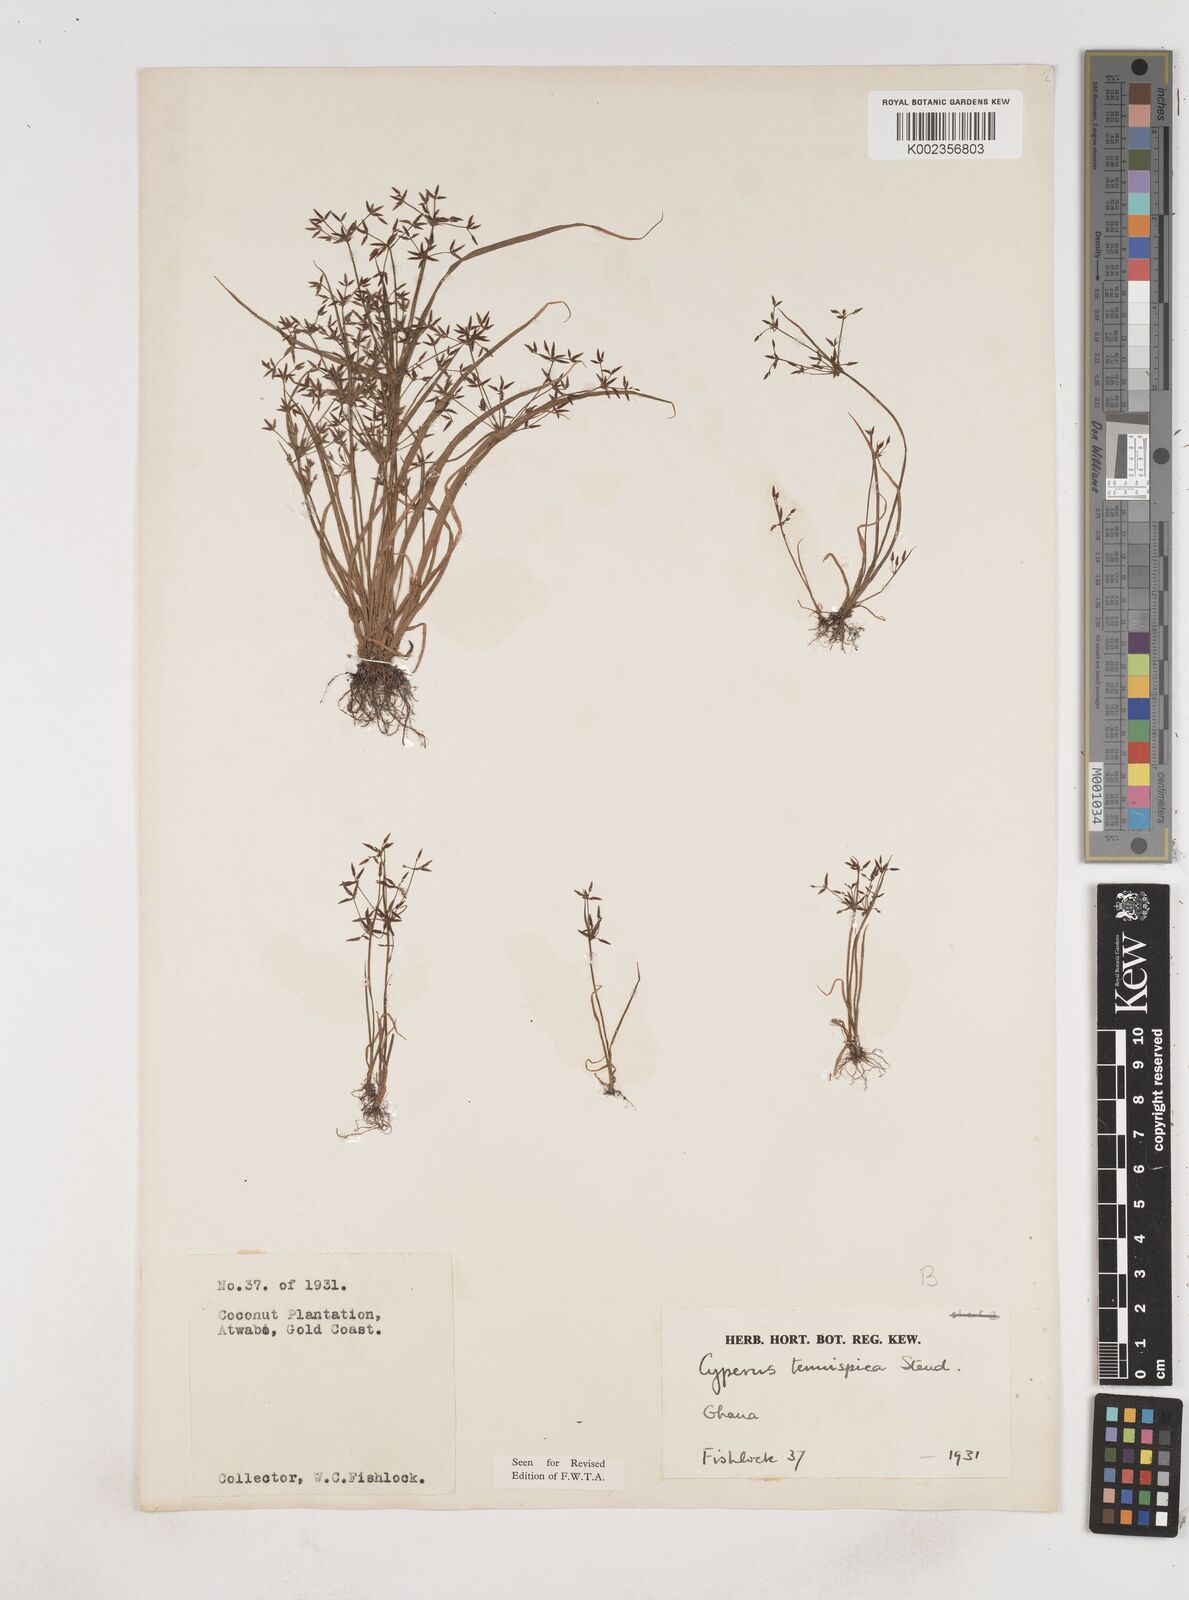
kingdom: Plantae
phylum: Tracheophyta
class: Liliopsida
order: Poales
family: Cyperaceae
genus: Cyperus
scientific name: Cyperus tenuispica
